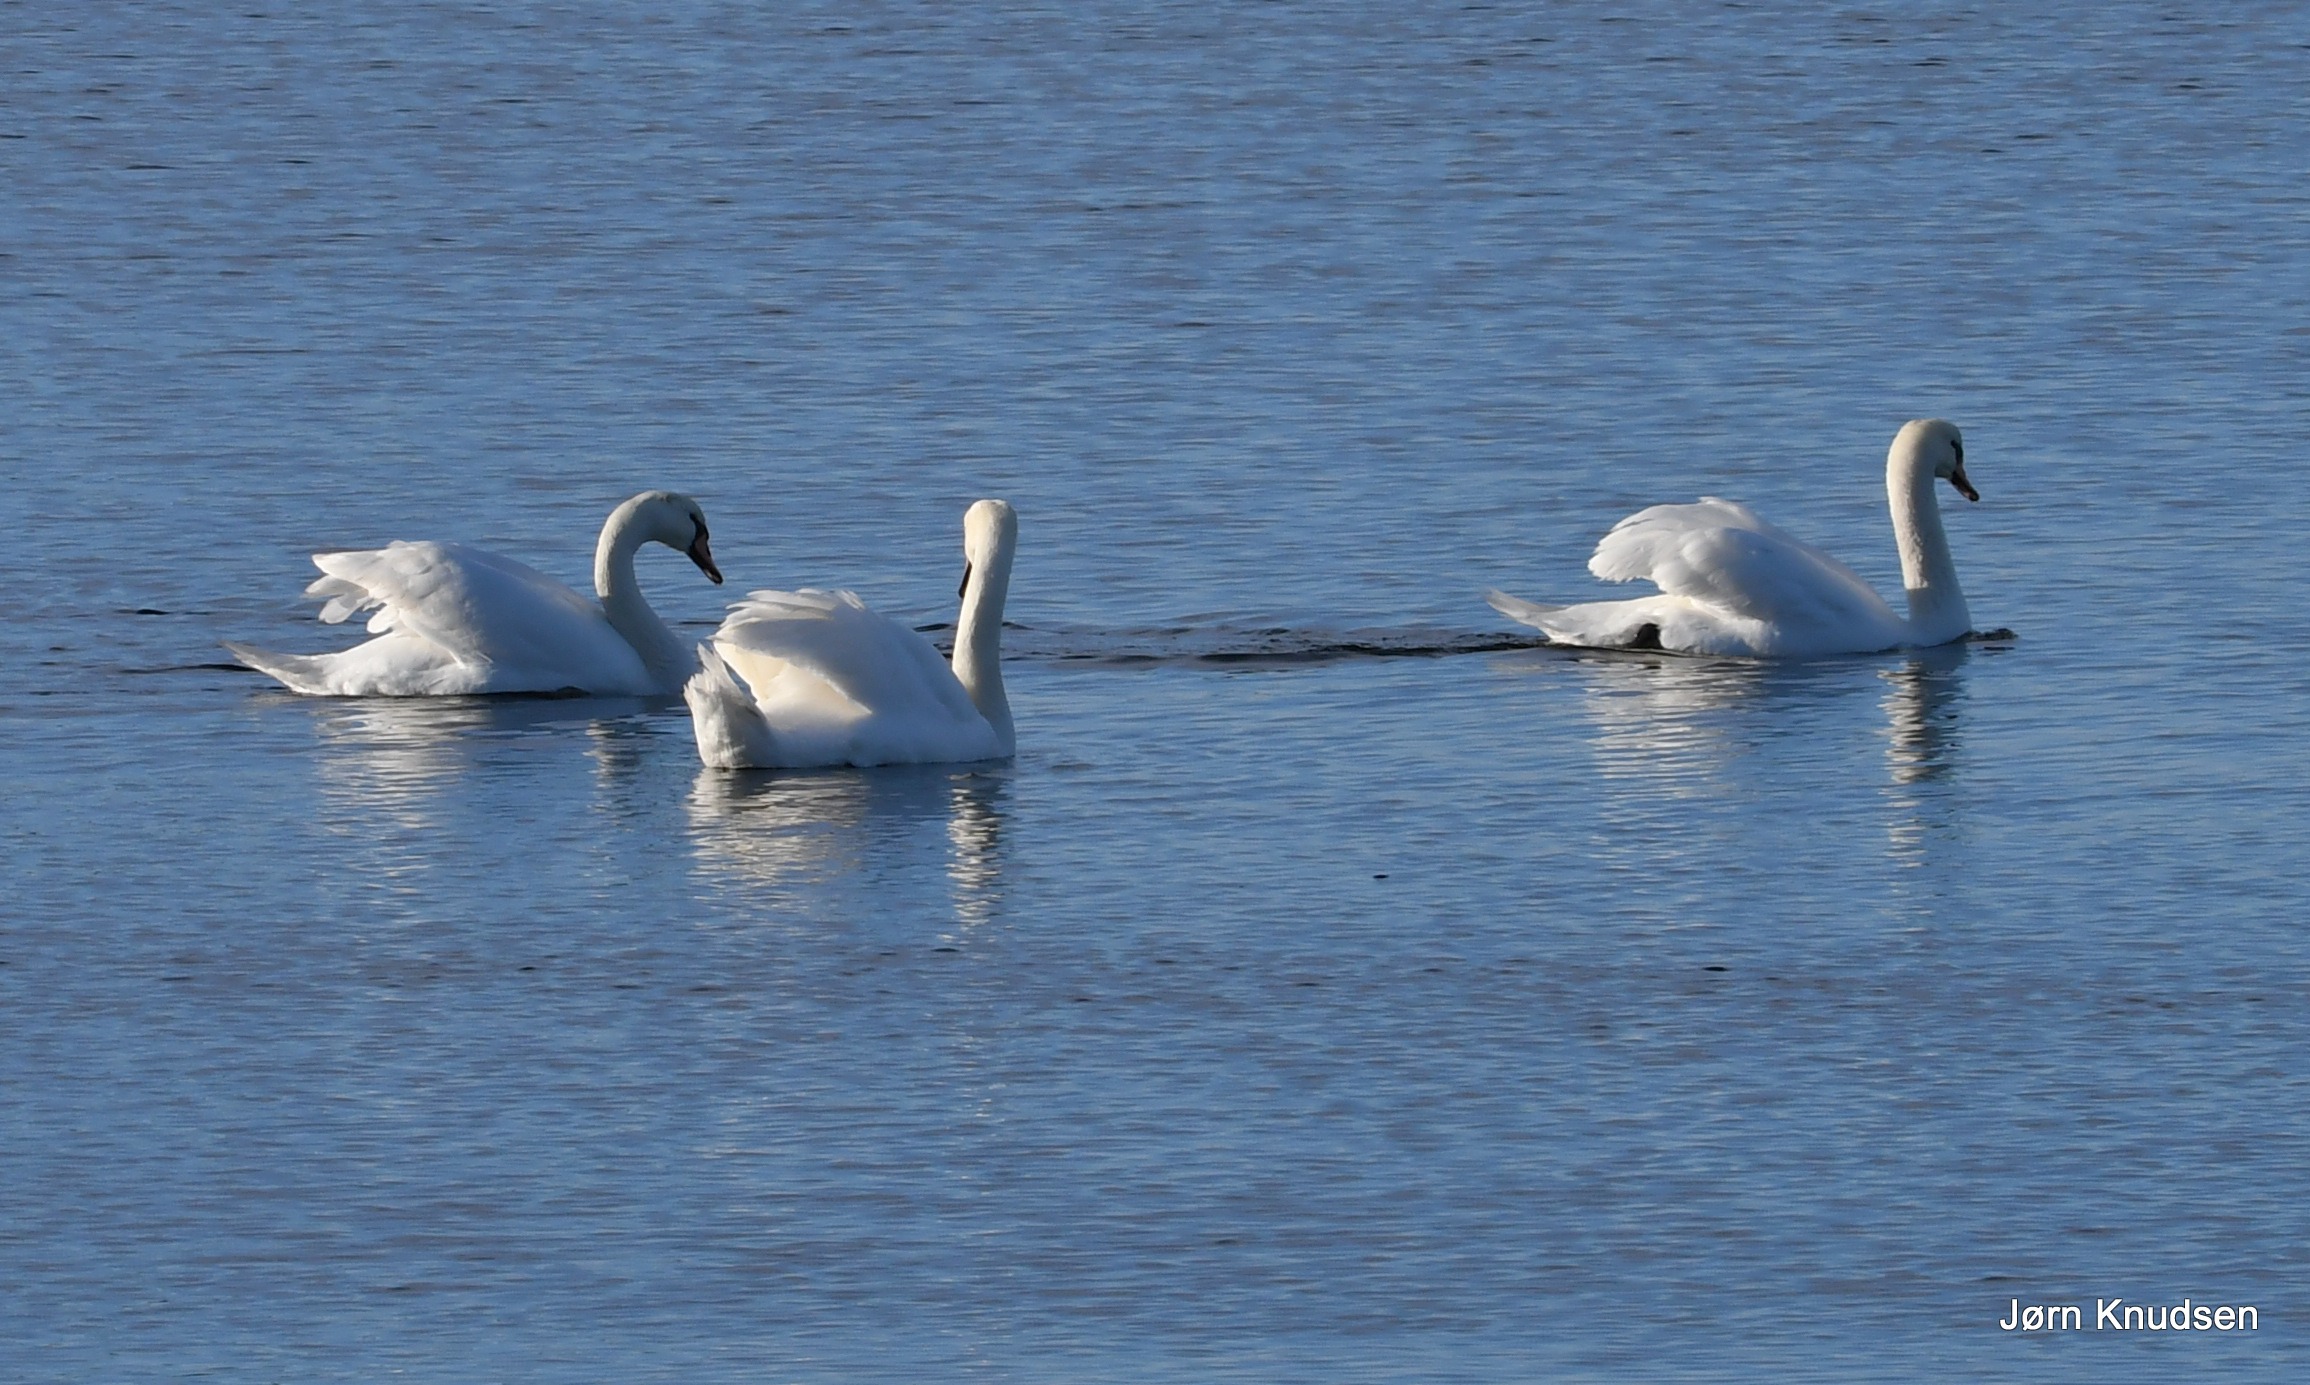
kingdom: Animalia
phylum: Chordata
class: Aves
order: Anseriformes
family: Anatidae
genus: Cygnus
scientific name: Cygnus olor
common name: Knopsvane
